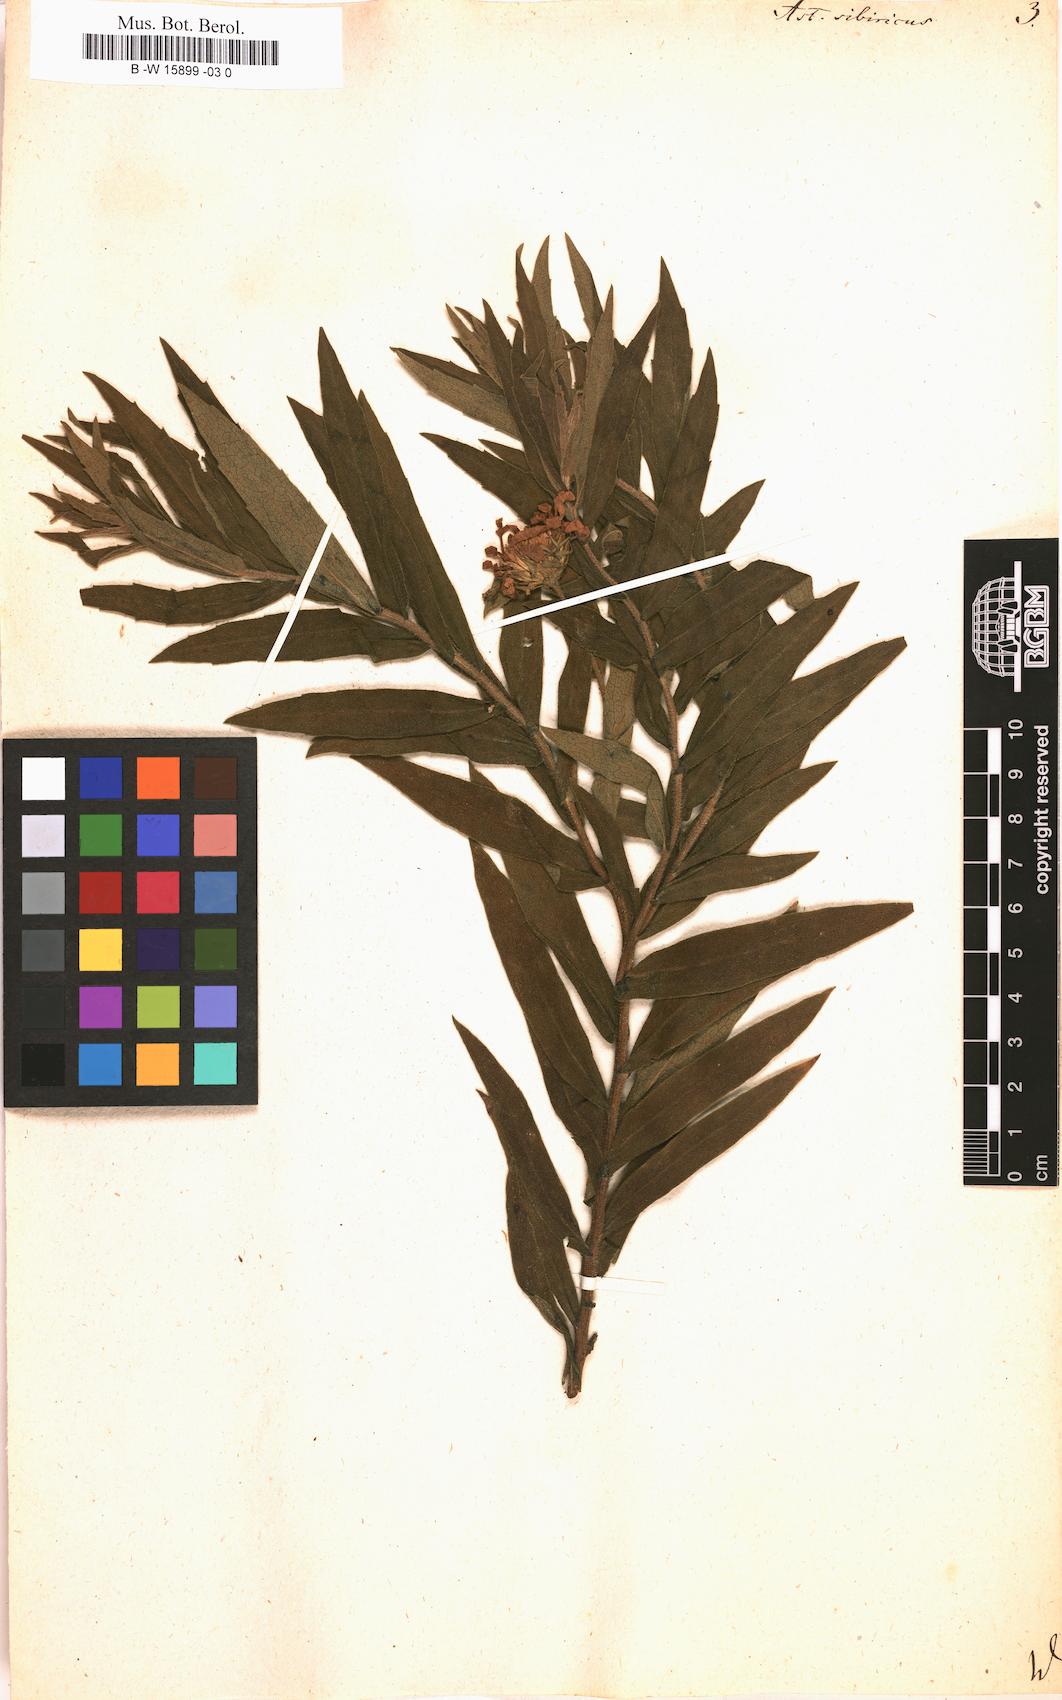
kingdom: Plantae
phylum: Tracheophyta
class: Magnoliopsida
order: Asterales
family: Asteraceae
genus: Eurybia
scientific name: Eurybia sibirica
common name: Arctic aster
